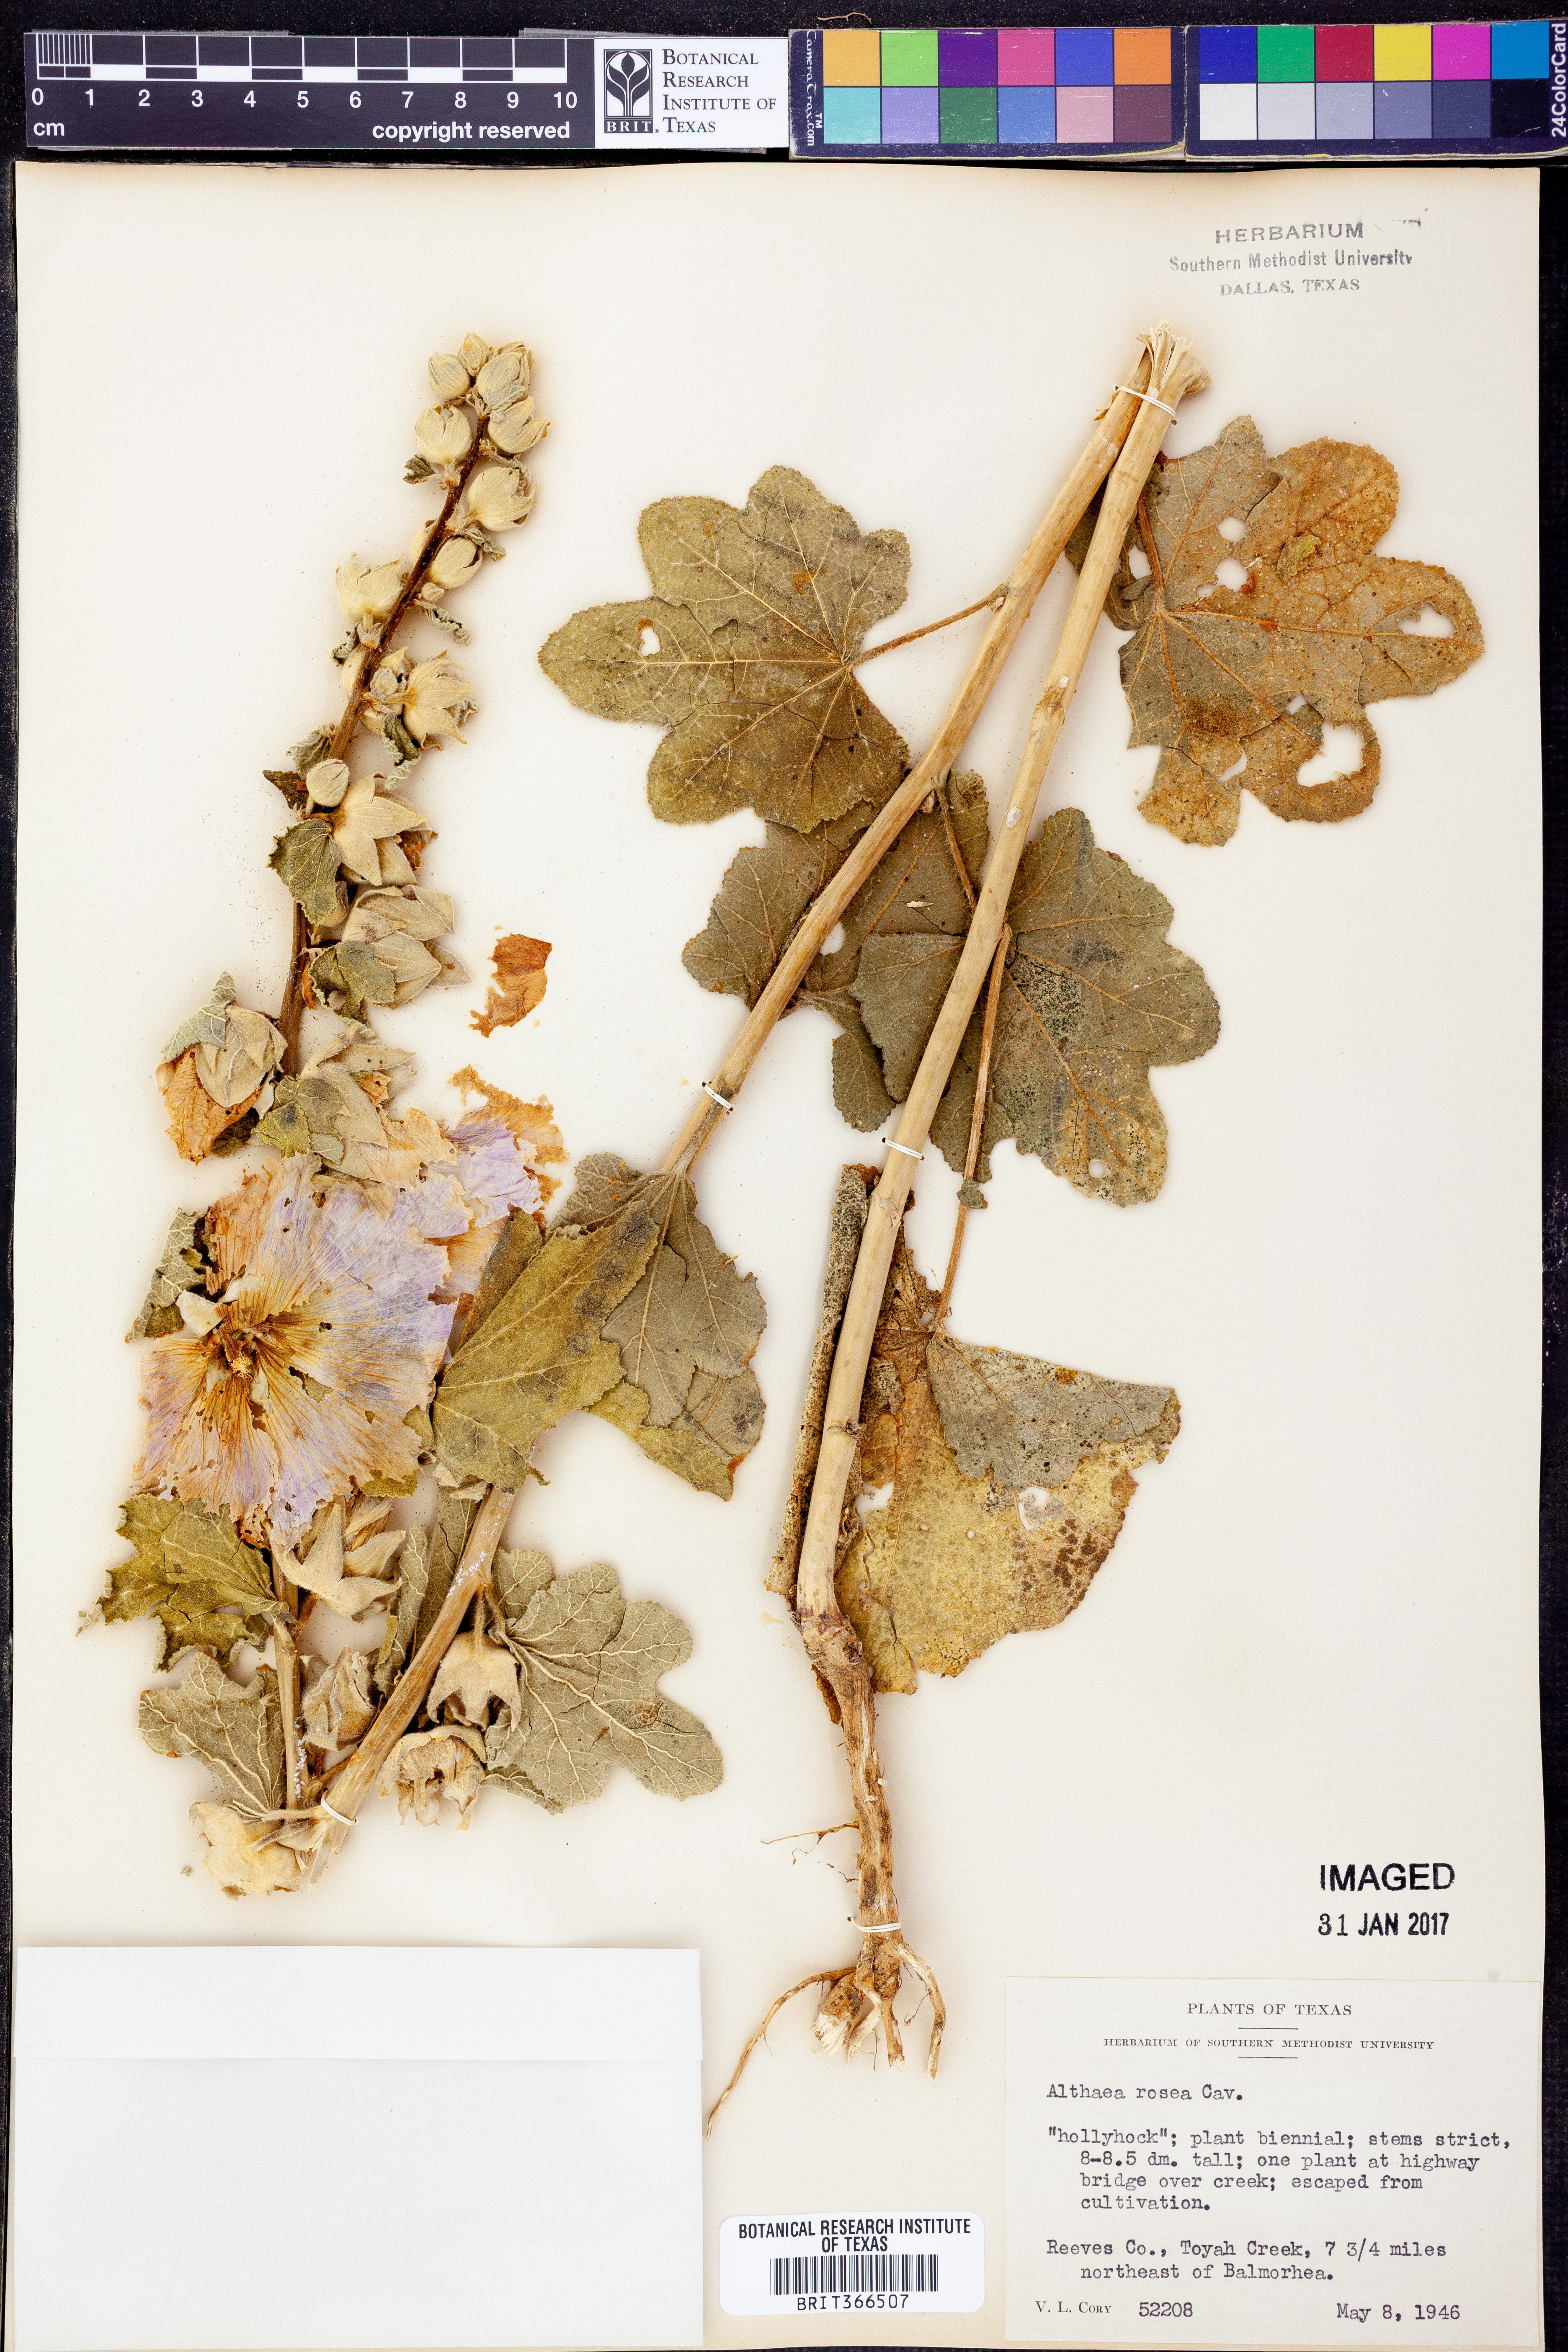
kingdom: Plantae
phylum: Tracheophyta
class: Magnoliopsida
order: Malvales
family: Malvaceae
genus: Alcea
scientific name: Alcea rosea
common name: Hollyhock
